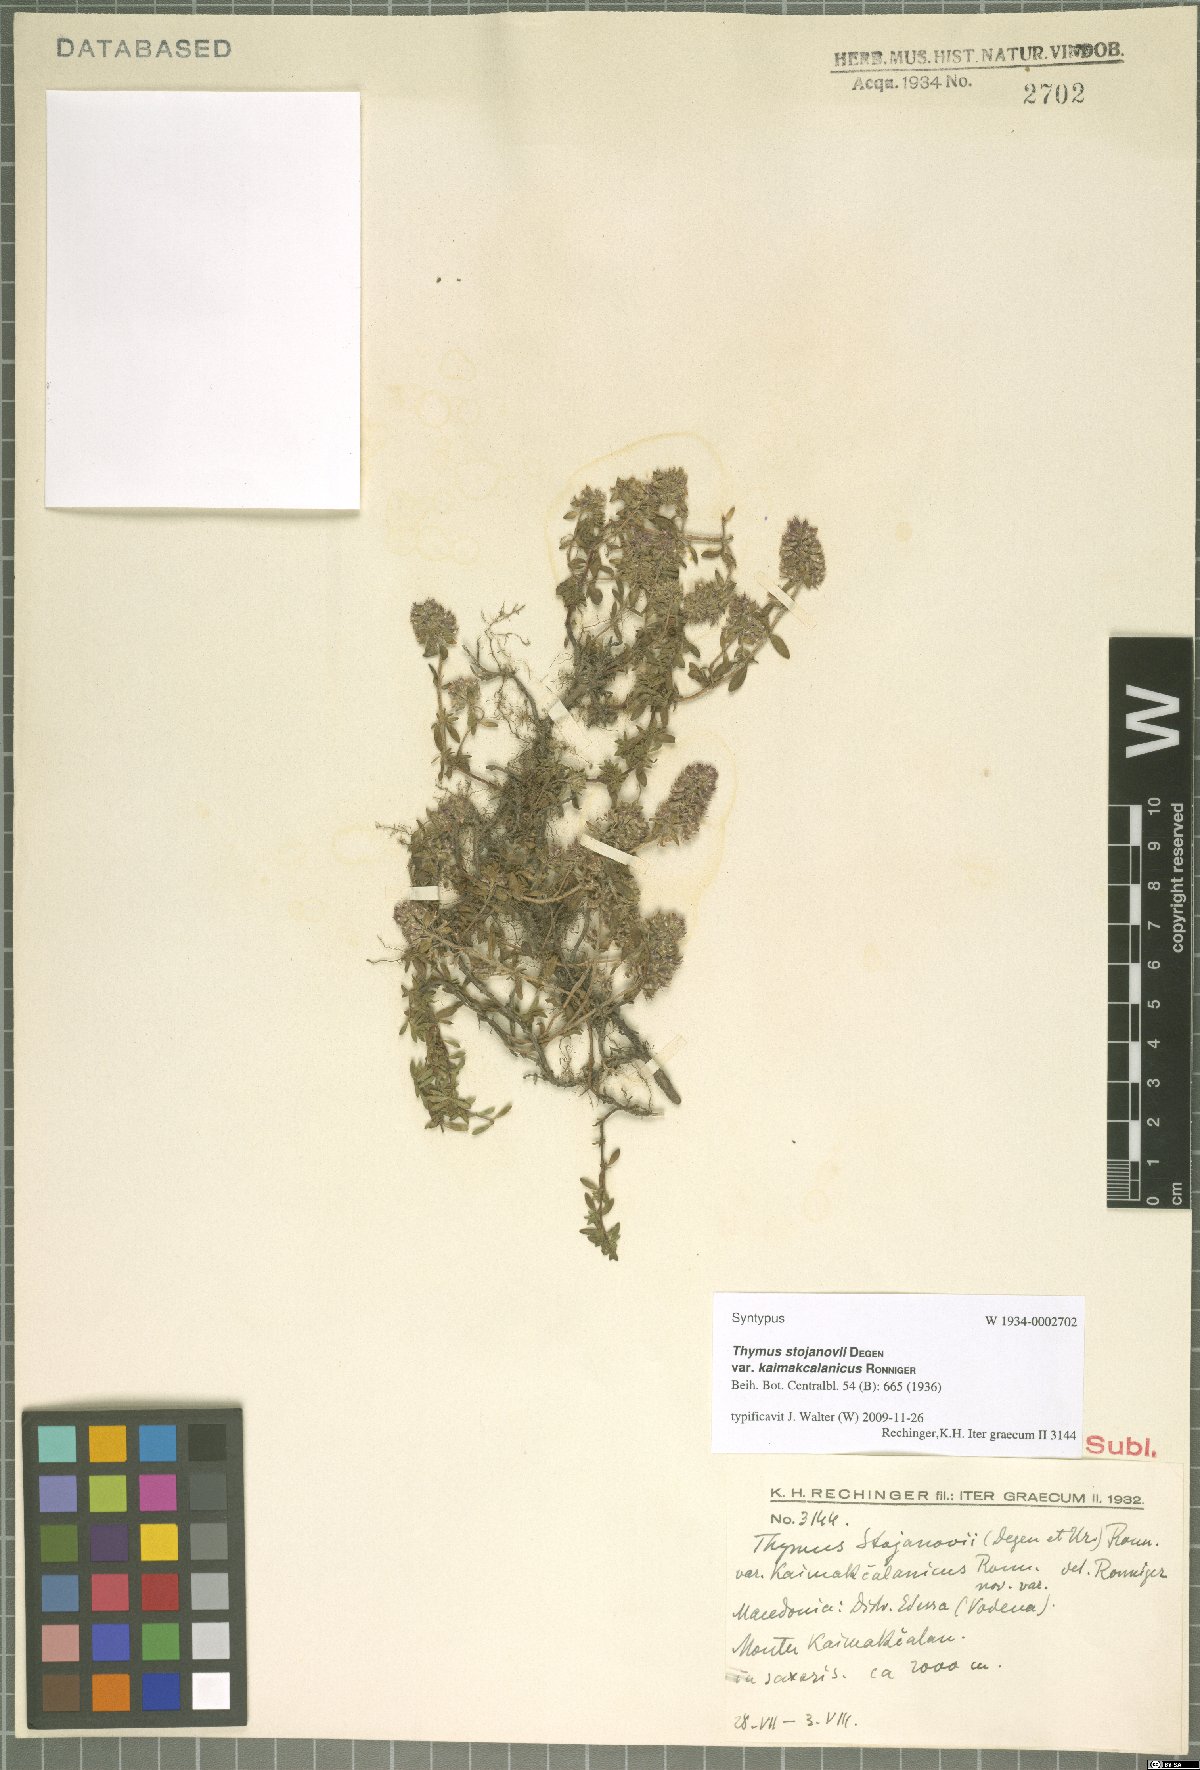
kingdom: Plantae
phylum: Tracheophyta
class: Magnoliopsida
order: Lamiales
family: Lamiaceae
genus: Thymus
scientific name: Thymus stojanovii
